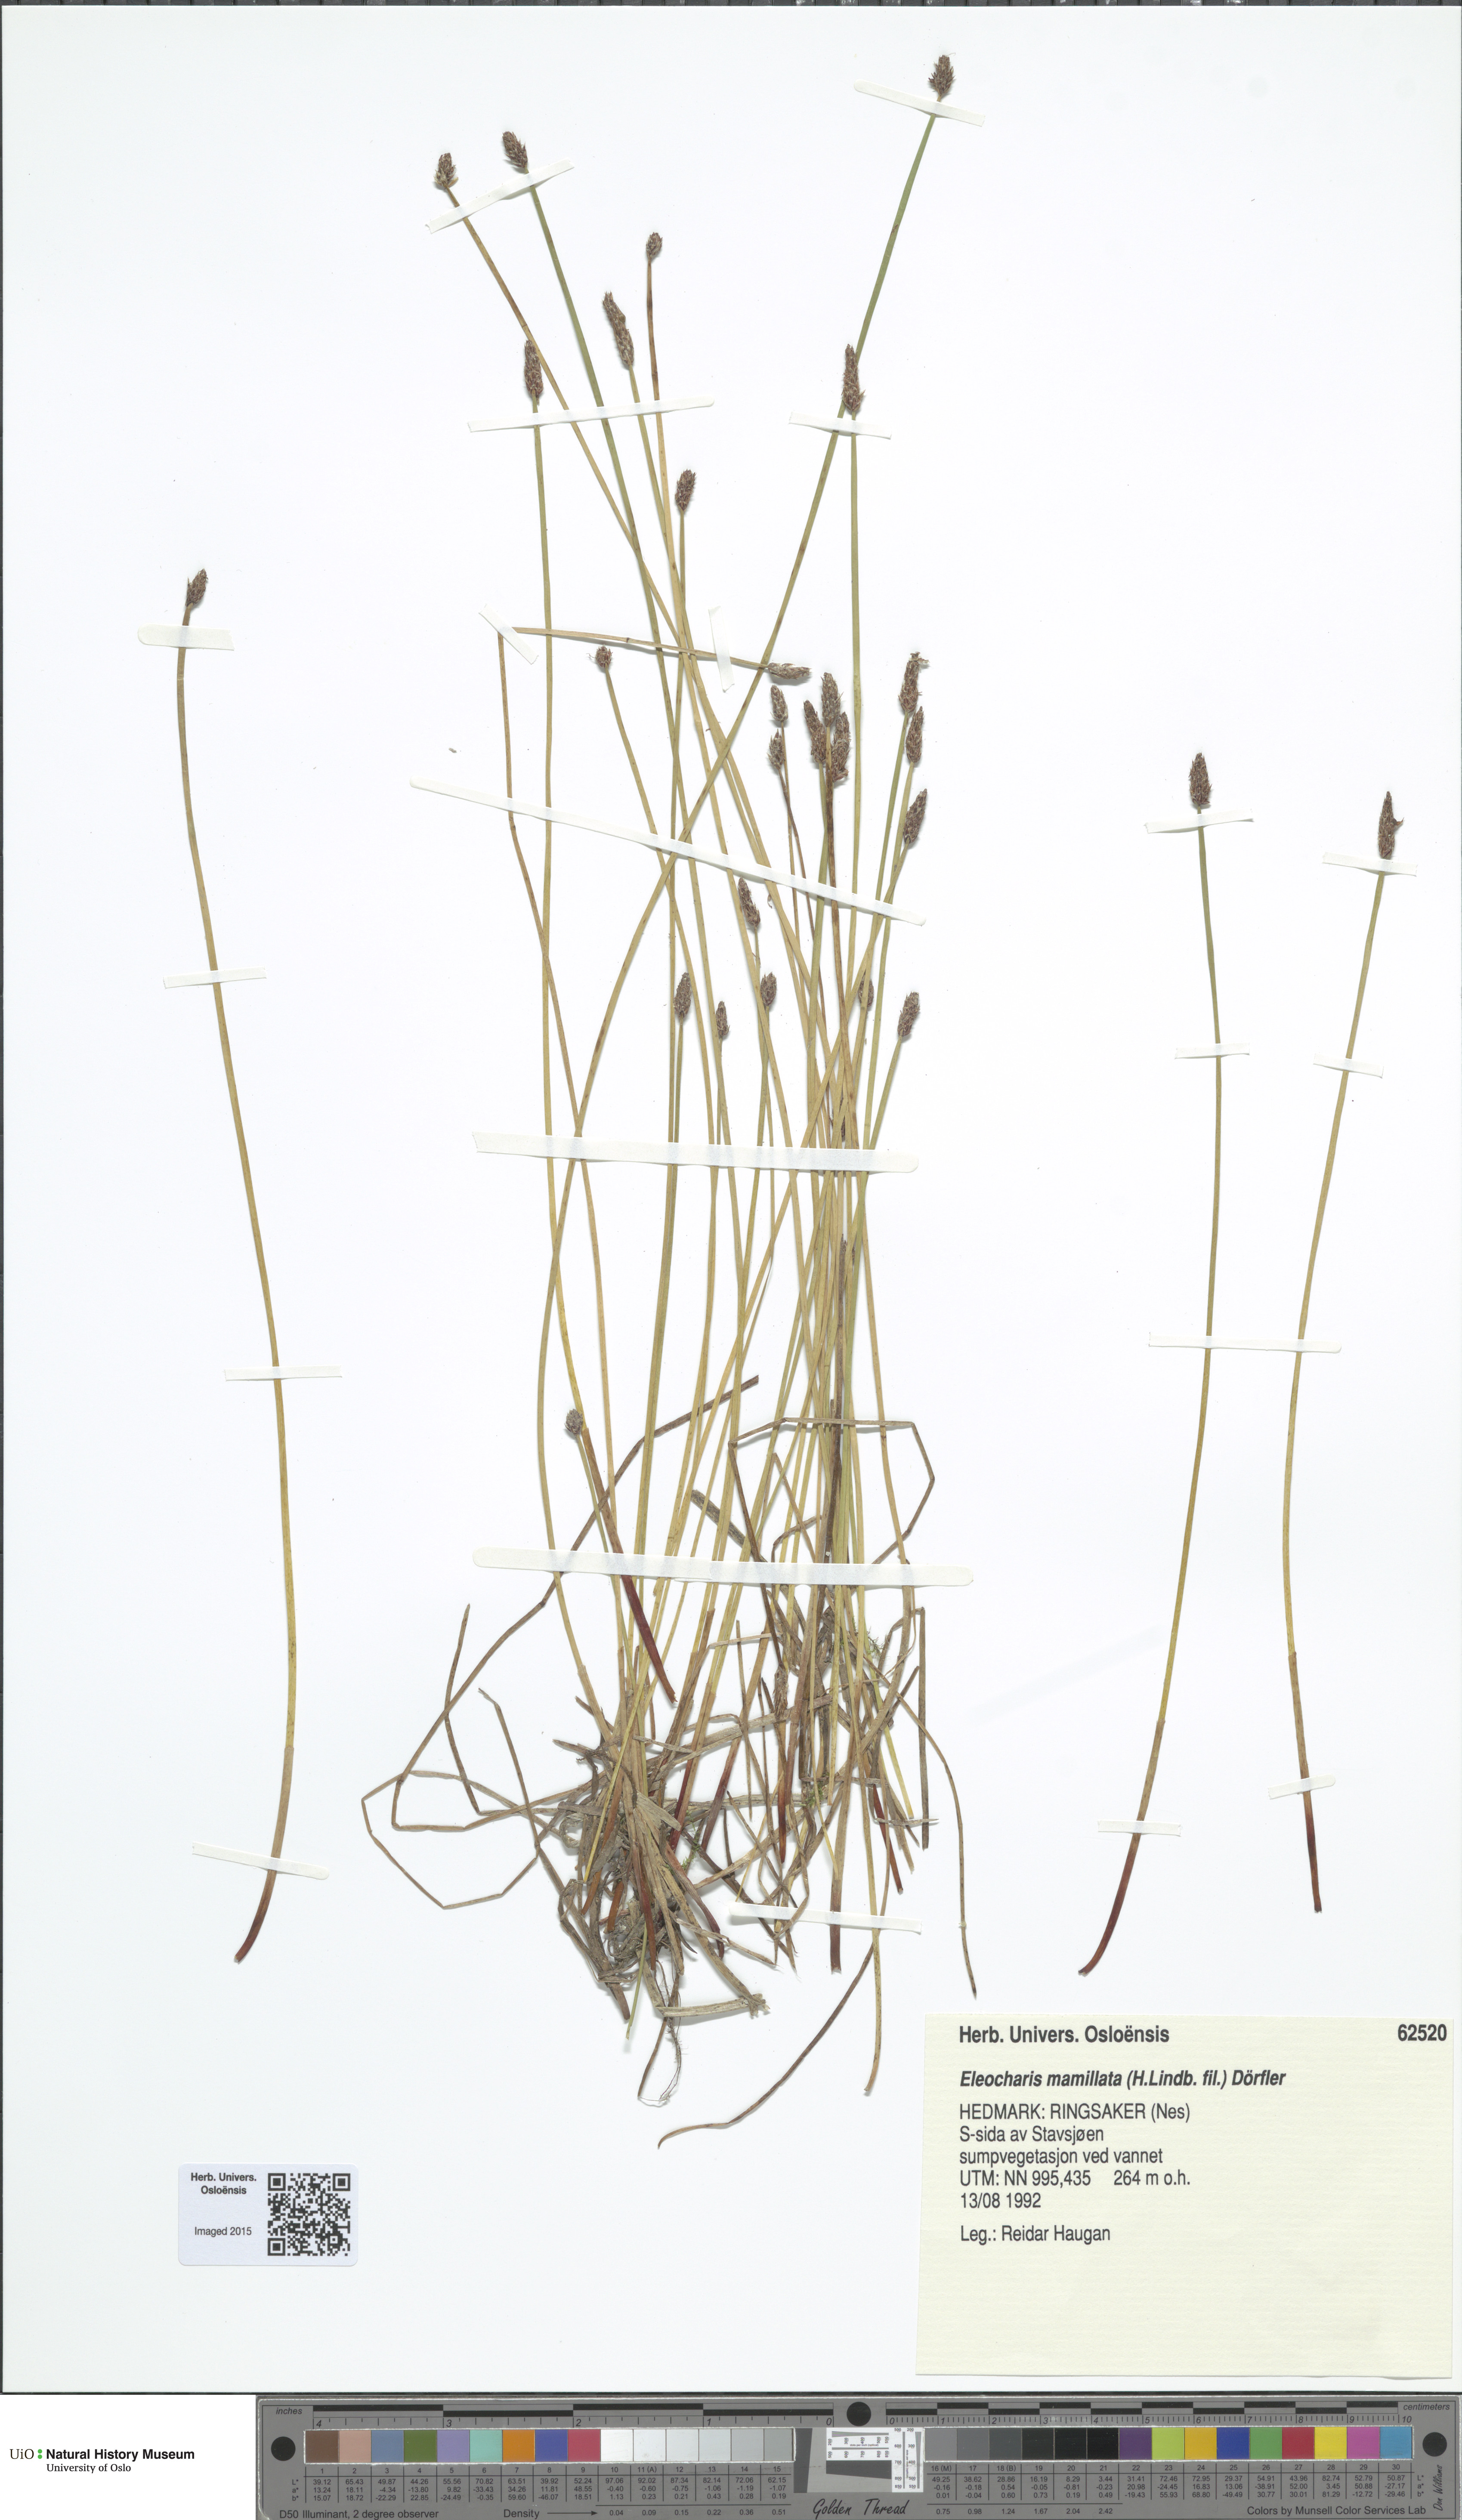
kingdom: Plantae
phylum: Tracheophyta
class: Liliopsida
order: Poales
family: Cyperaceae
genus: Eleocharis
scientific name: Eleocharis mamillata
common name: Northern spike-rush
